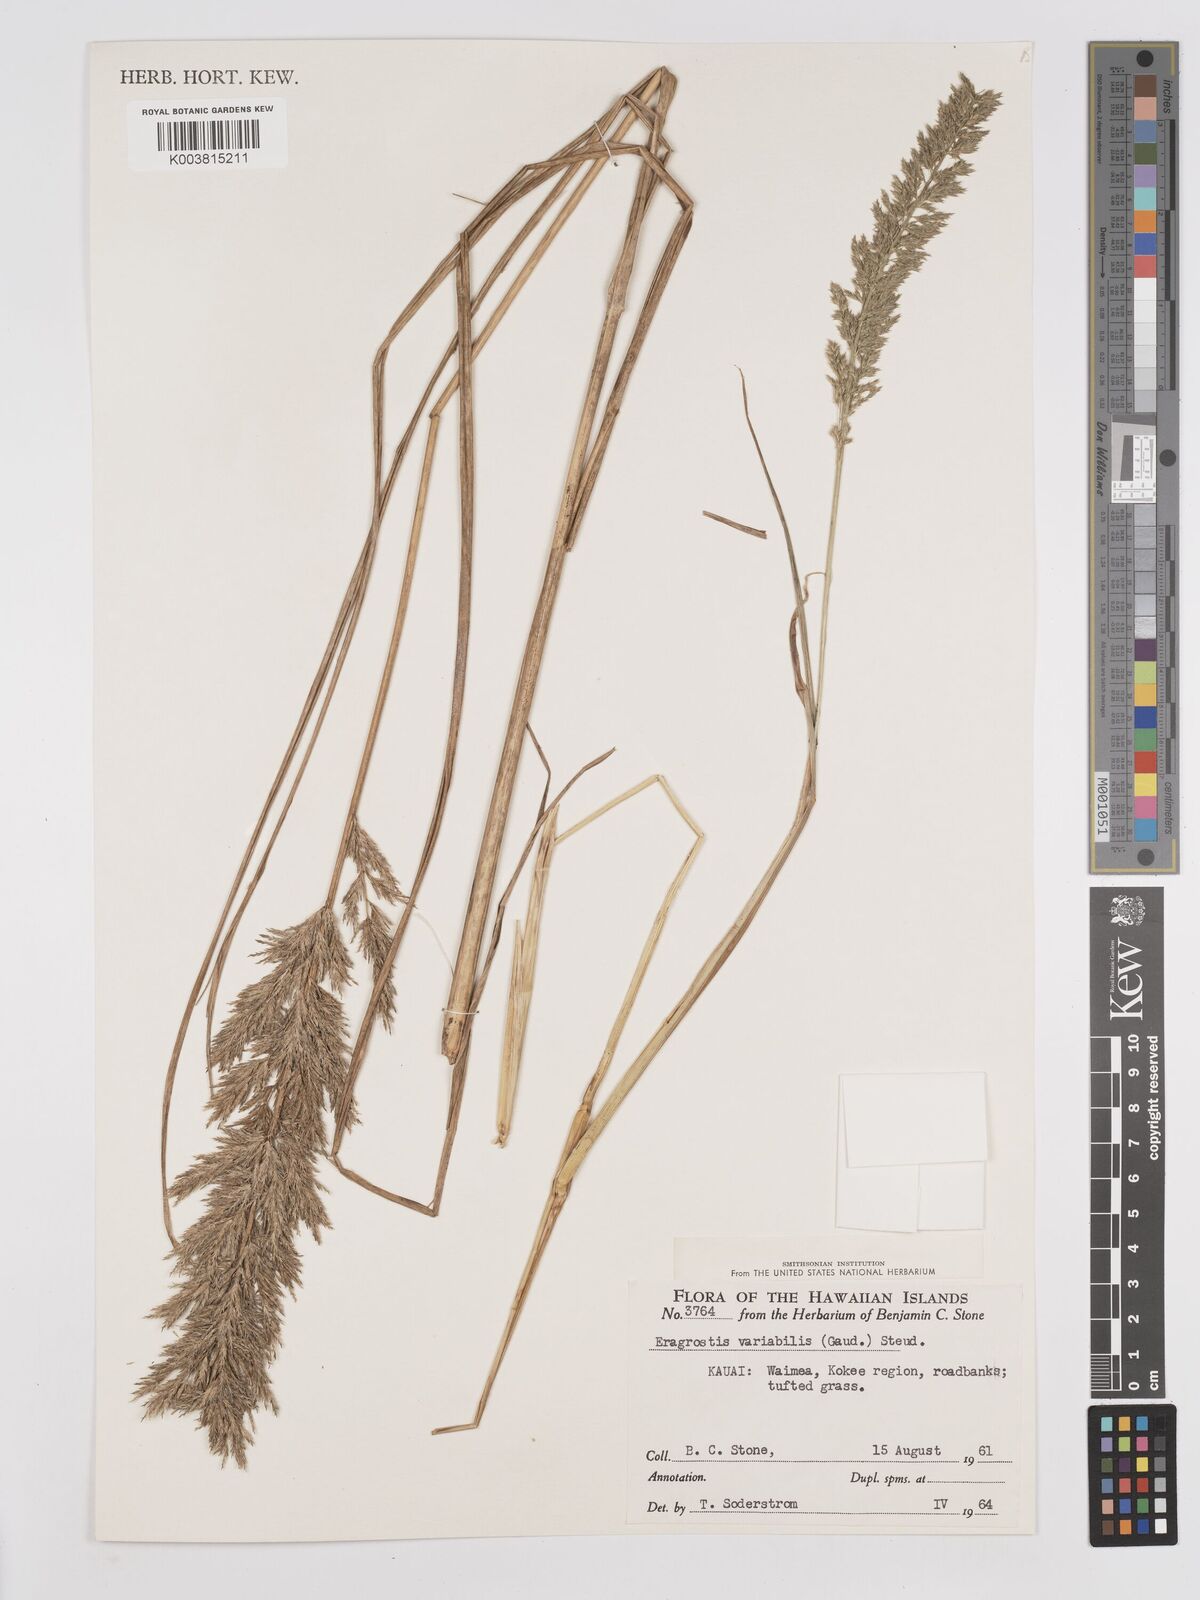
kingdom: Plantae
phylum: Tracheophyta
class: Liliopsida
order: Poales
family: Poaceae
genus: Eragrostis
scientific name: Eragrostis variabilis
